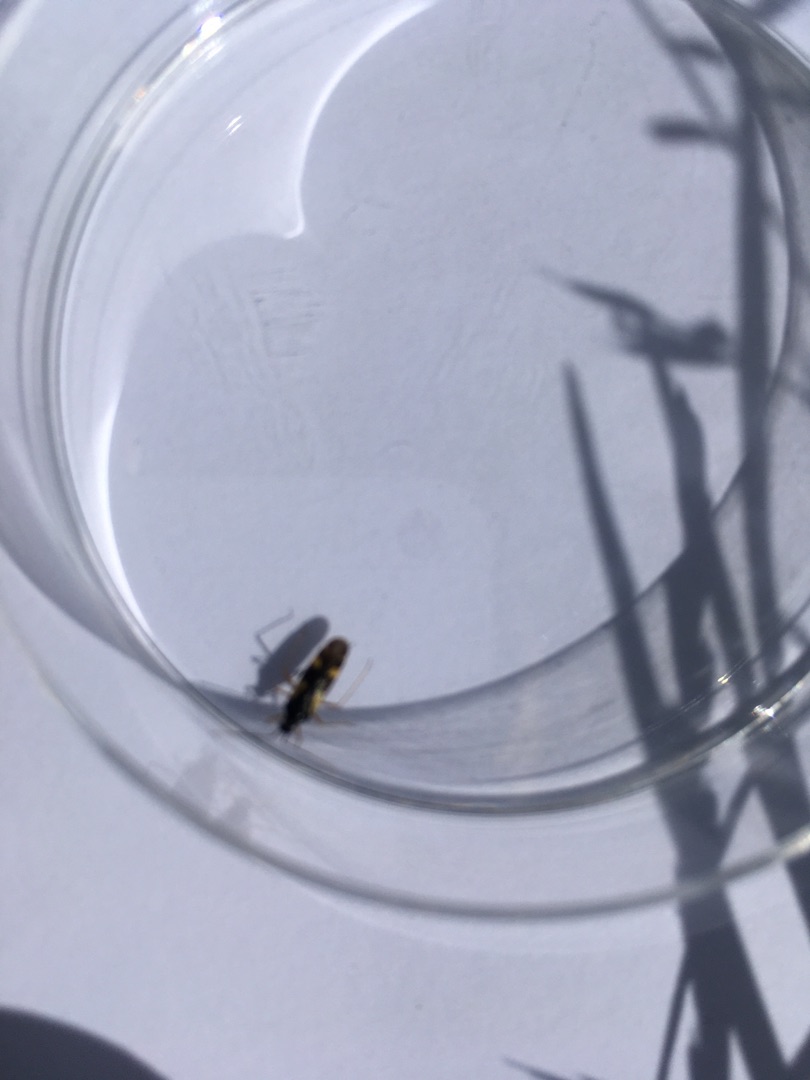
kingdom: Animalia
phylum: Arthropoda
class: Insecta
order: Hemiptera
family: Miridae
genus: Dryophilocoris
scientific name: Dryophilocoris flavoquadrimaculatus
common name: Fireplettet blomstertæge
